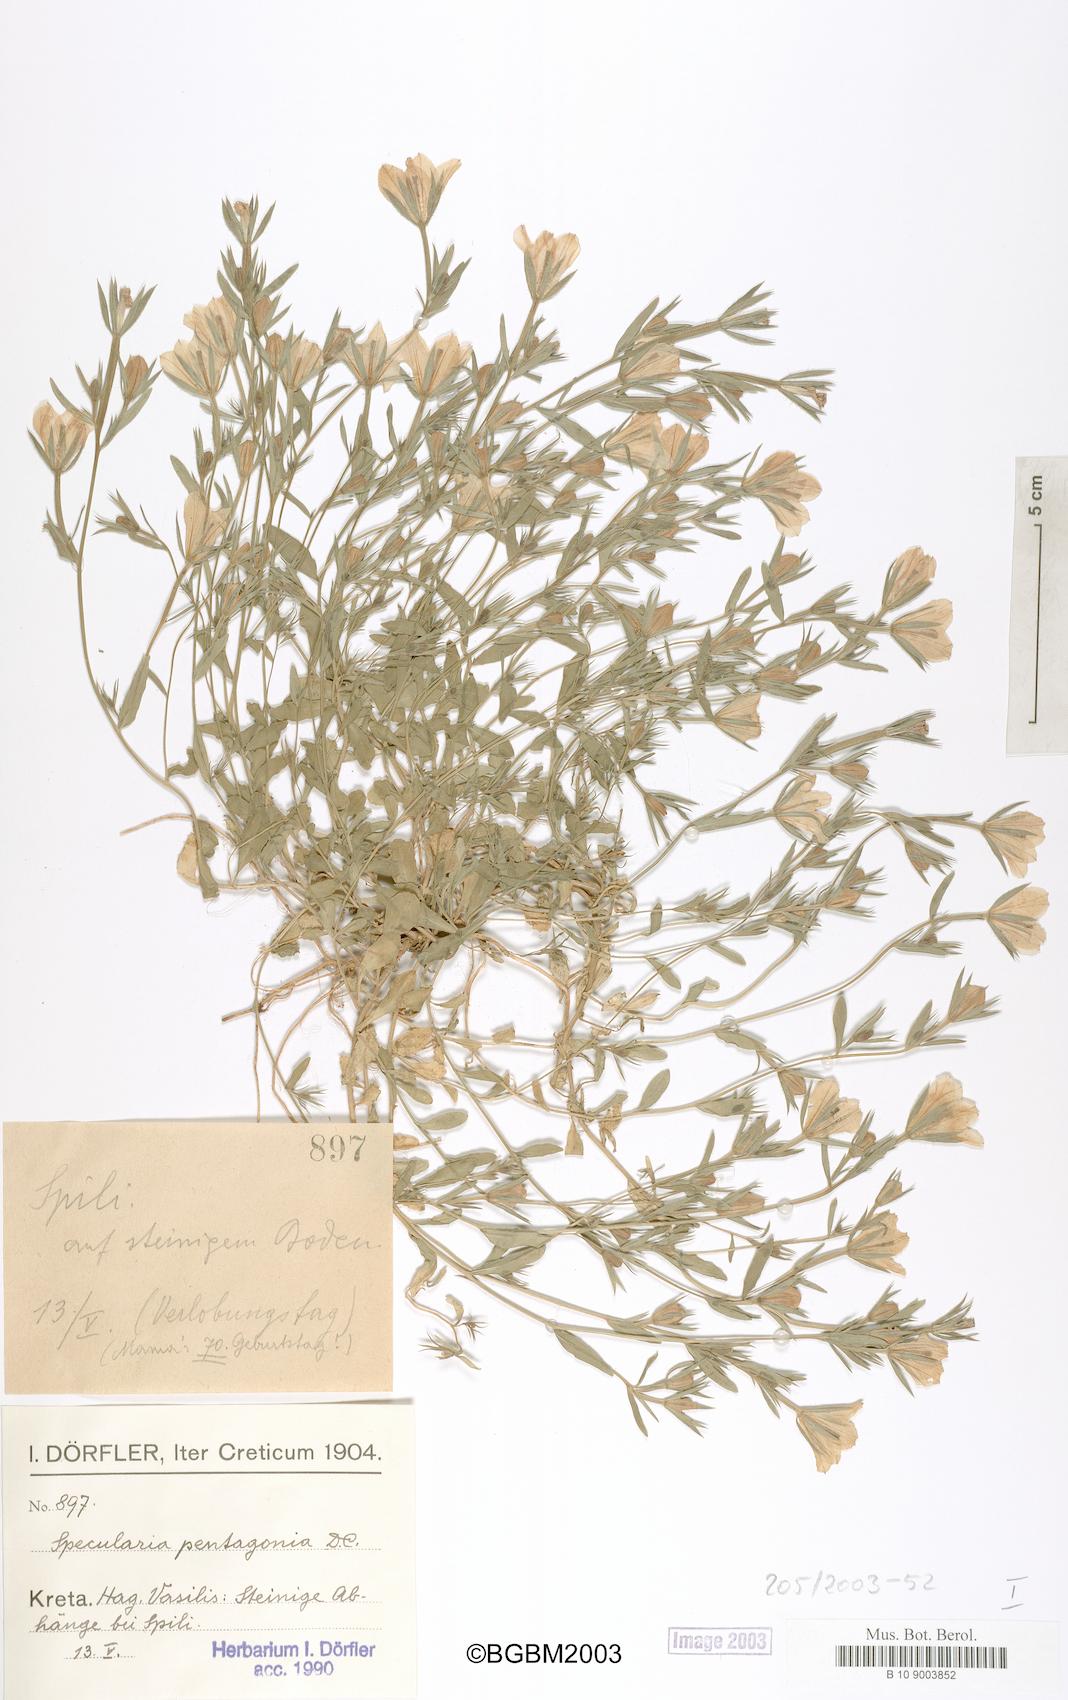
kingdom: Plantae
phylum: Tracheophyta
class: Magnoliopsida
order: Asterales
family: Campanulaceae
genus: Legousia
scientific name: Legousia pentagonia
